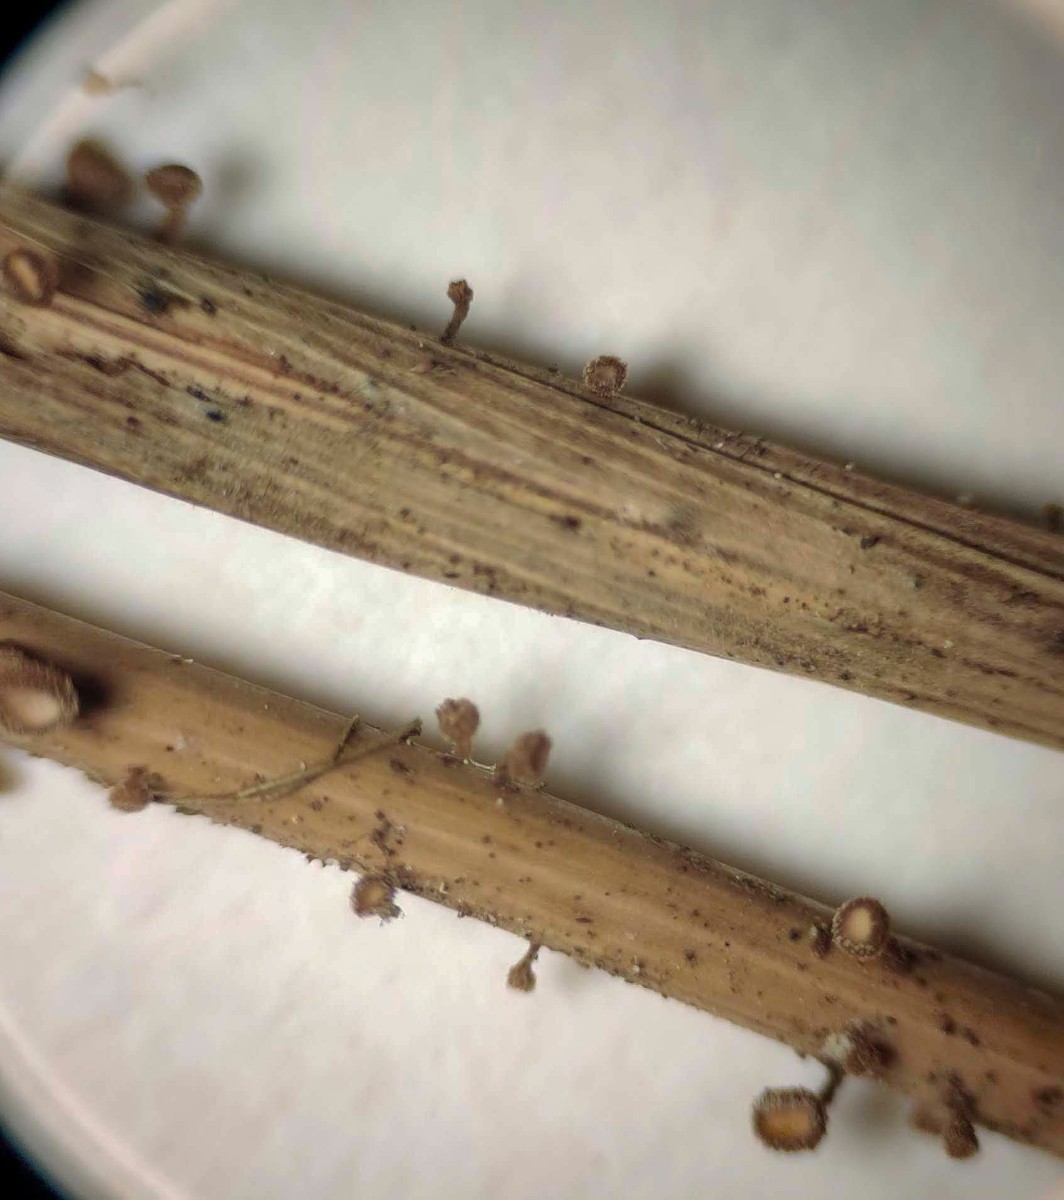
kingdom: Fungi
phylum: Ascomycota
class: Leotiomycetes
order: Helotiales
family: Lachnaceae
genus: Brunnipila
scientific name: Brunnipila palearum
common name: brunhåret frynseskive
